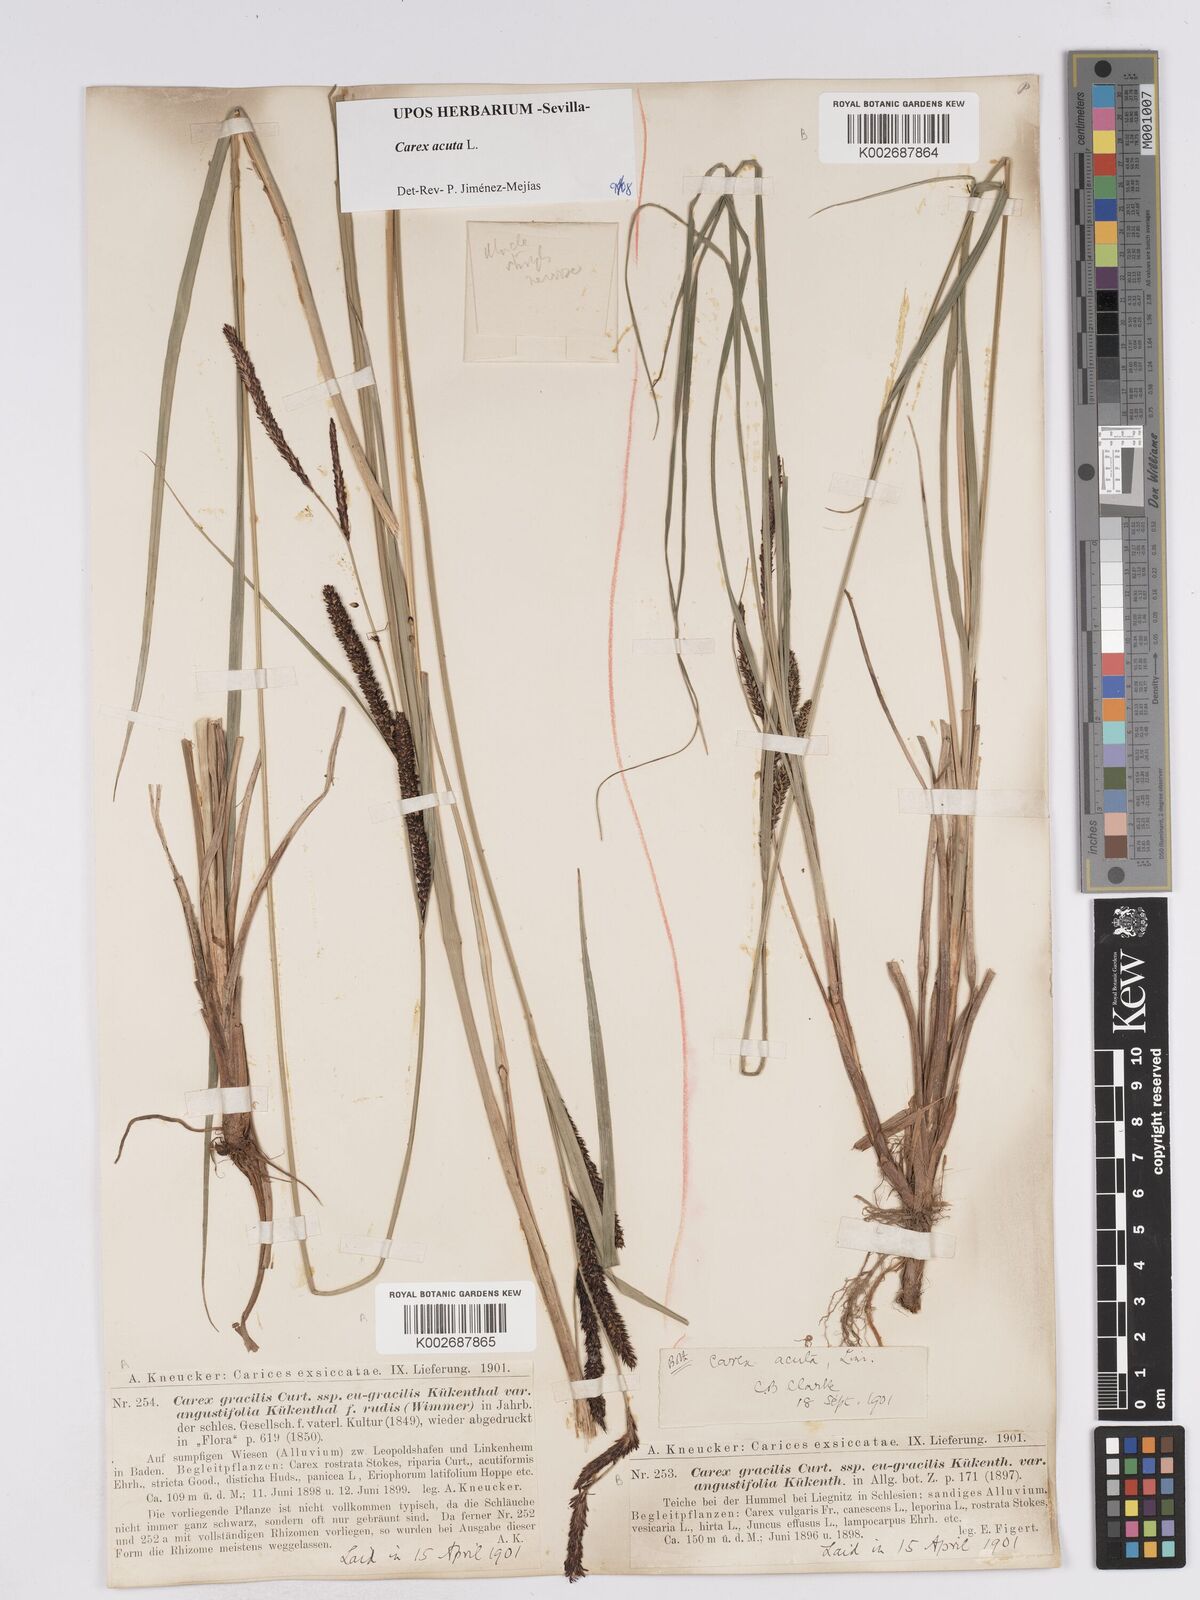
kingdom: Plantae
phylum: Tracheophyta
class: Liliopsida
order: Poales
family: Cyperaceae
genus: Carex
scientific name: Carex acuta
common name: Slender tufted-sedge
